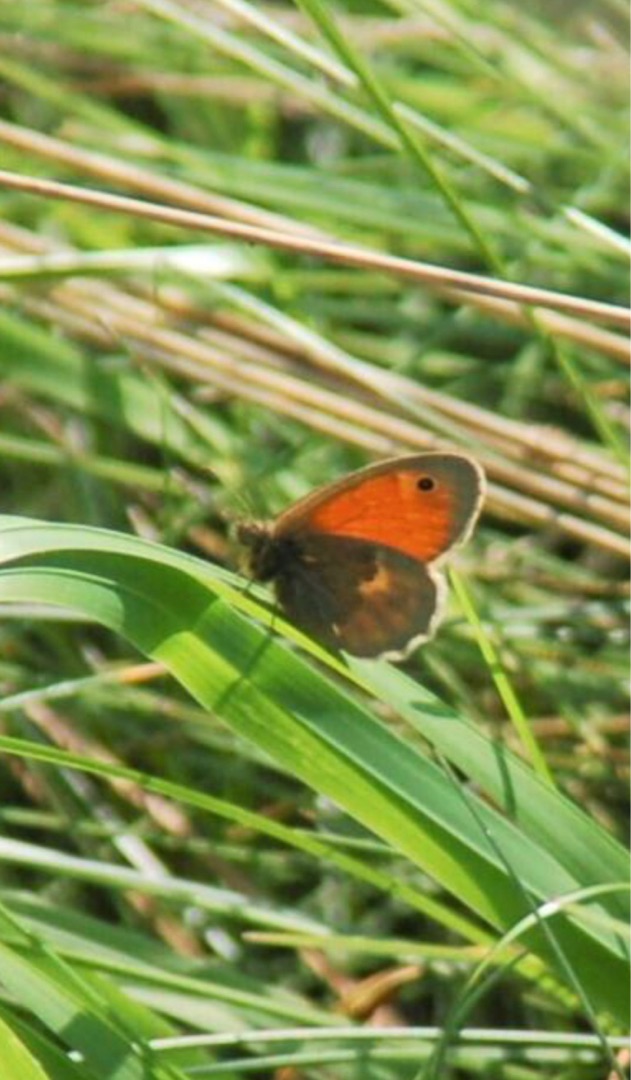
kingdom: Animalia
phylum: Arthropoda
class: Insecta
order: Lepidoptera
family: Nymphalidae
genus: Coenonympha
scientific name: Coenonympha pamphilus
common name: Okkergul randøje
